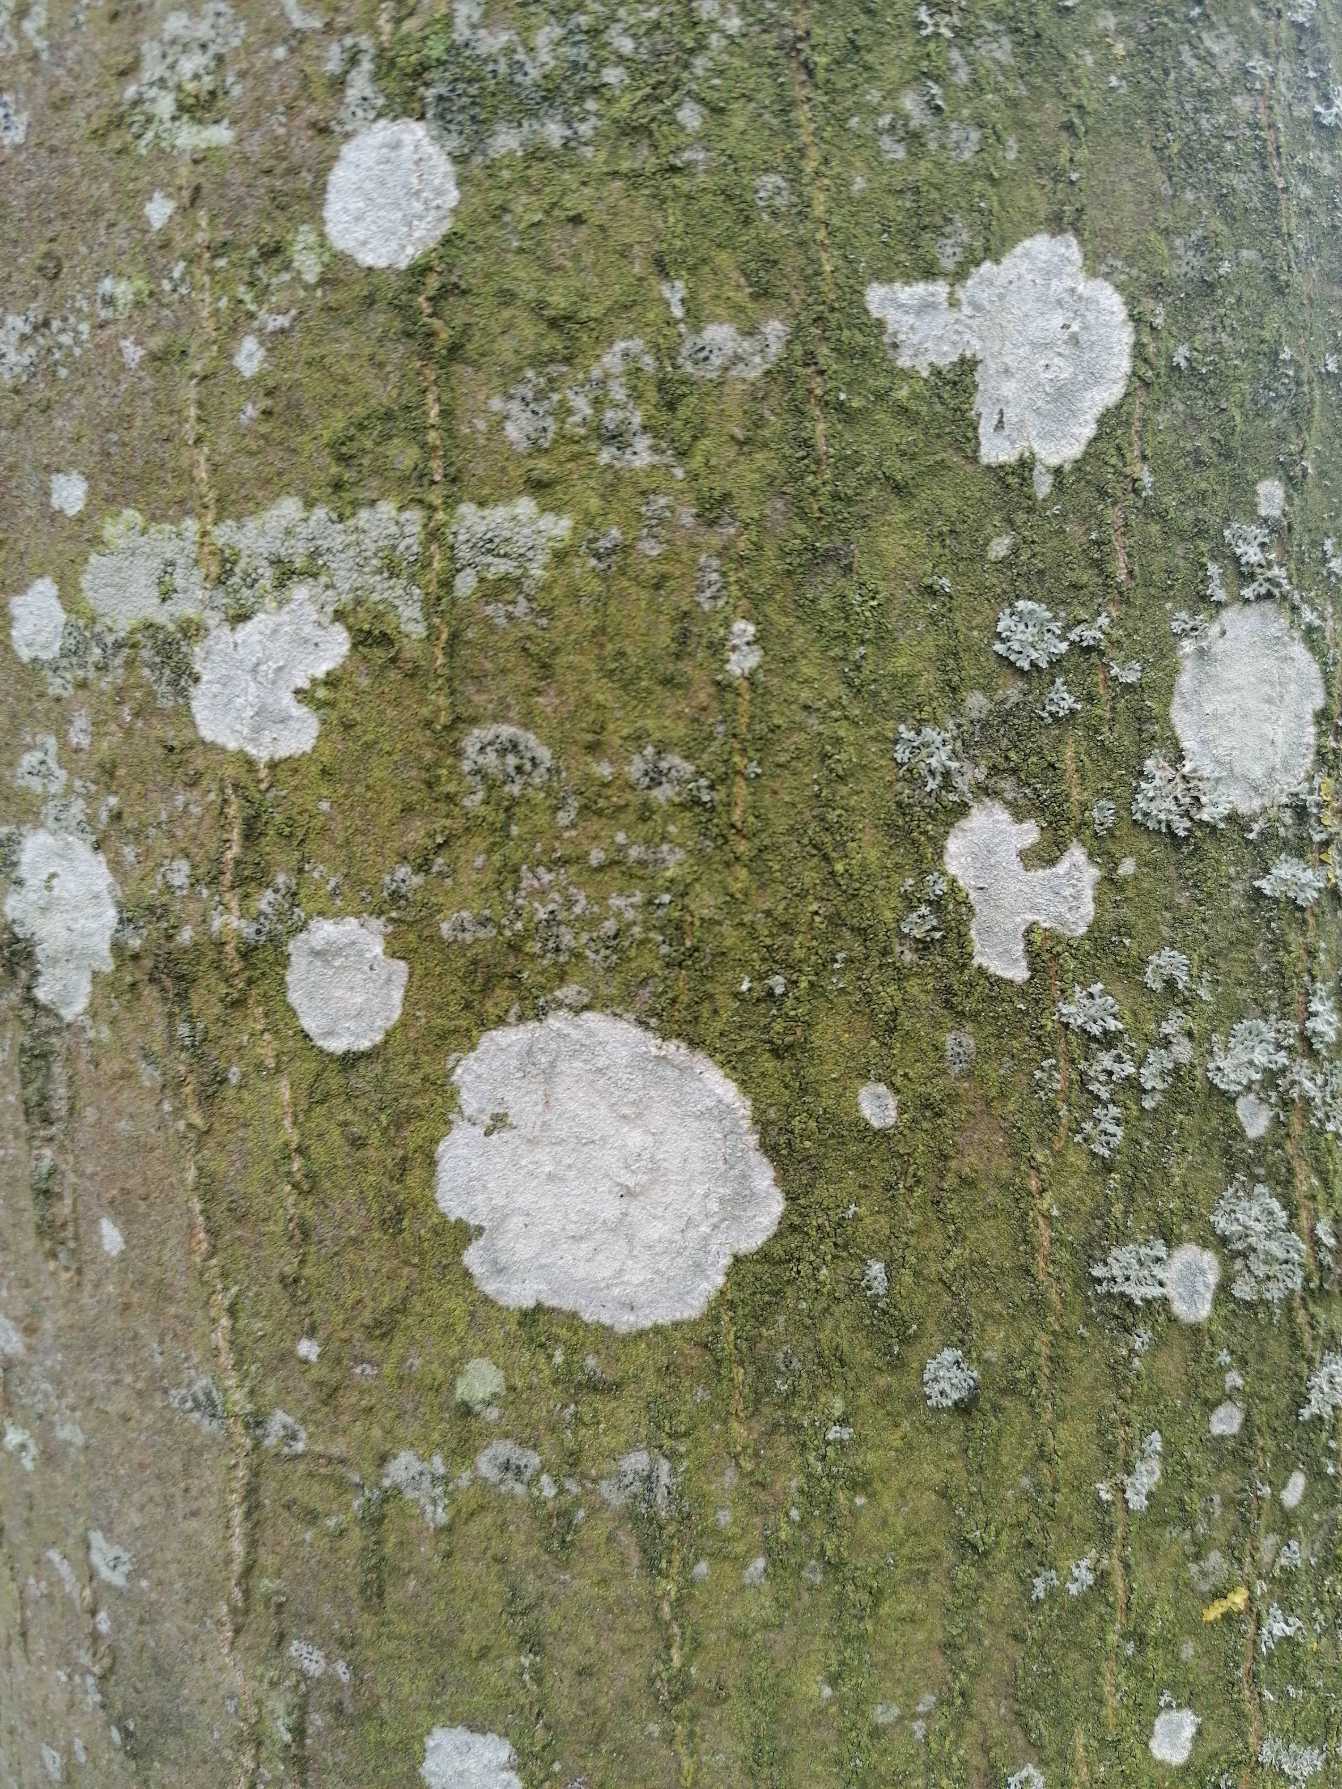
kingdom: Fungi
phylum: Ascomycota
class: Lecanoromycetes
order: Ostropales
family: Phlyctidaceae
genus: Phlyctis
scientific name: Phlyctis argena
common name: Almindelig sølvlav
